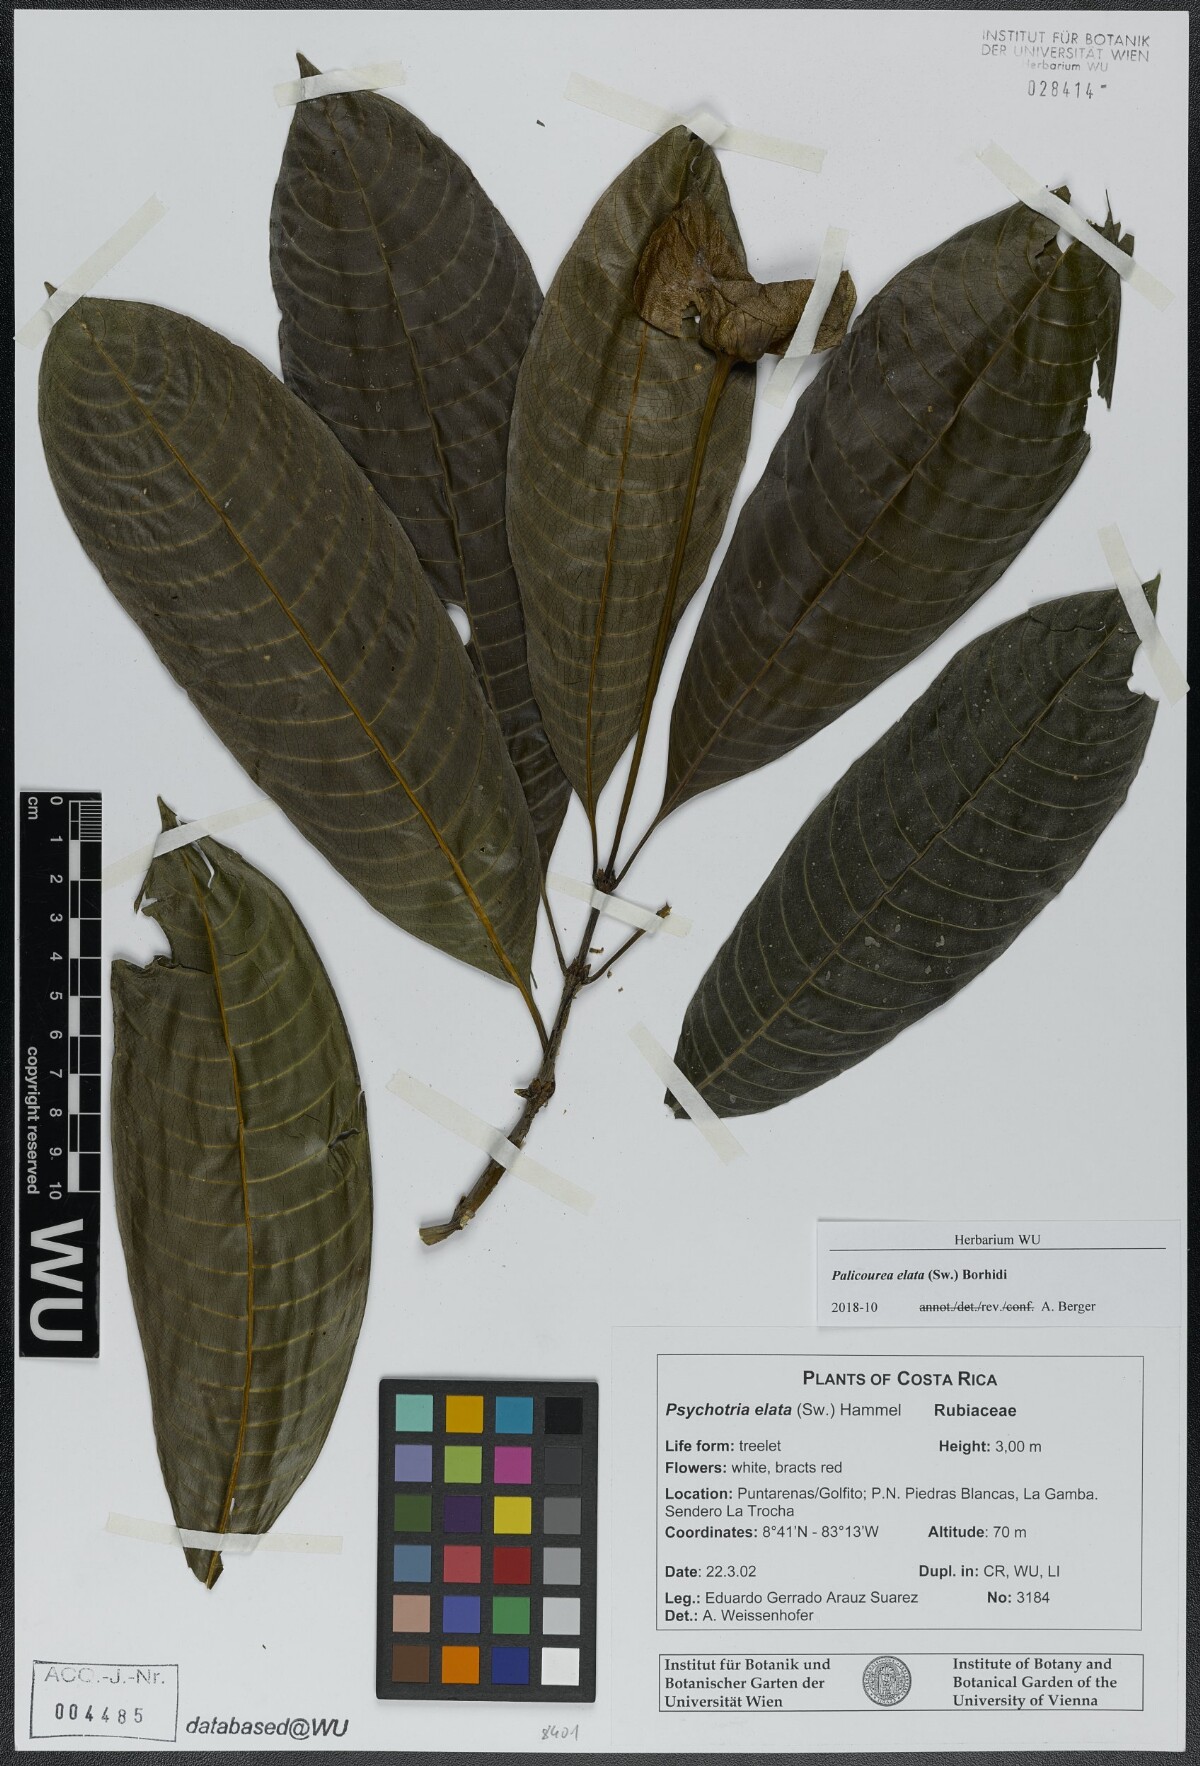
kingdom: Plantae
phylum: Tracheophyta
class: Magnoliopsida
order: Gentianales
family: Rubiaceae
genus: Palicourea
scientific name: Palicourea elata
